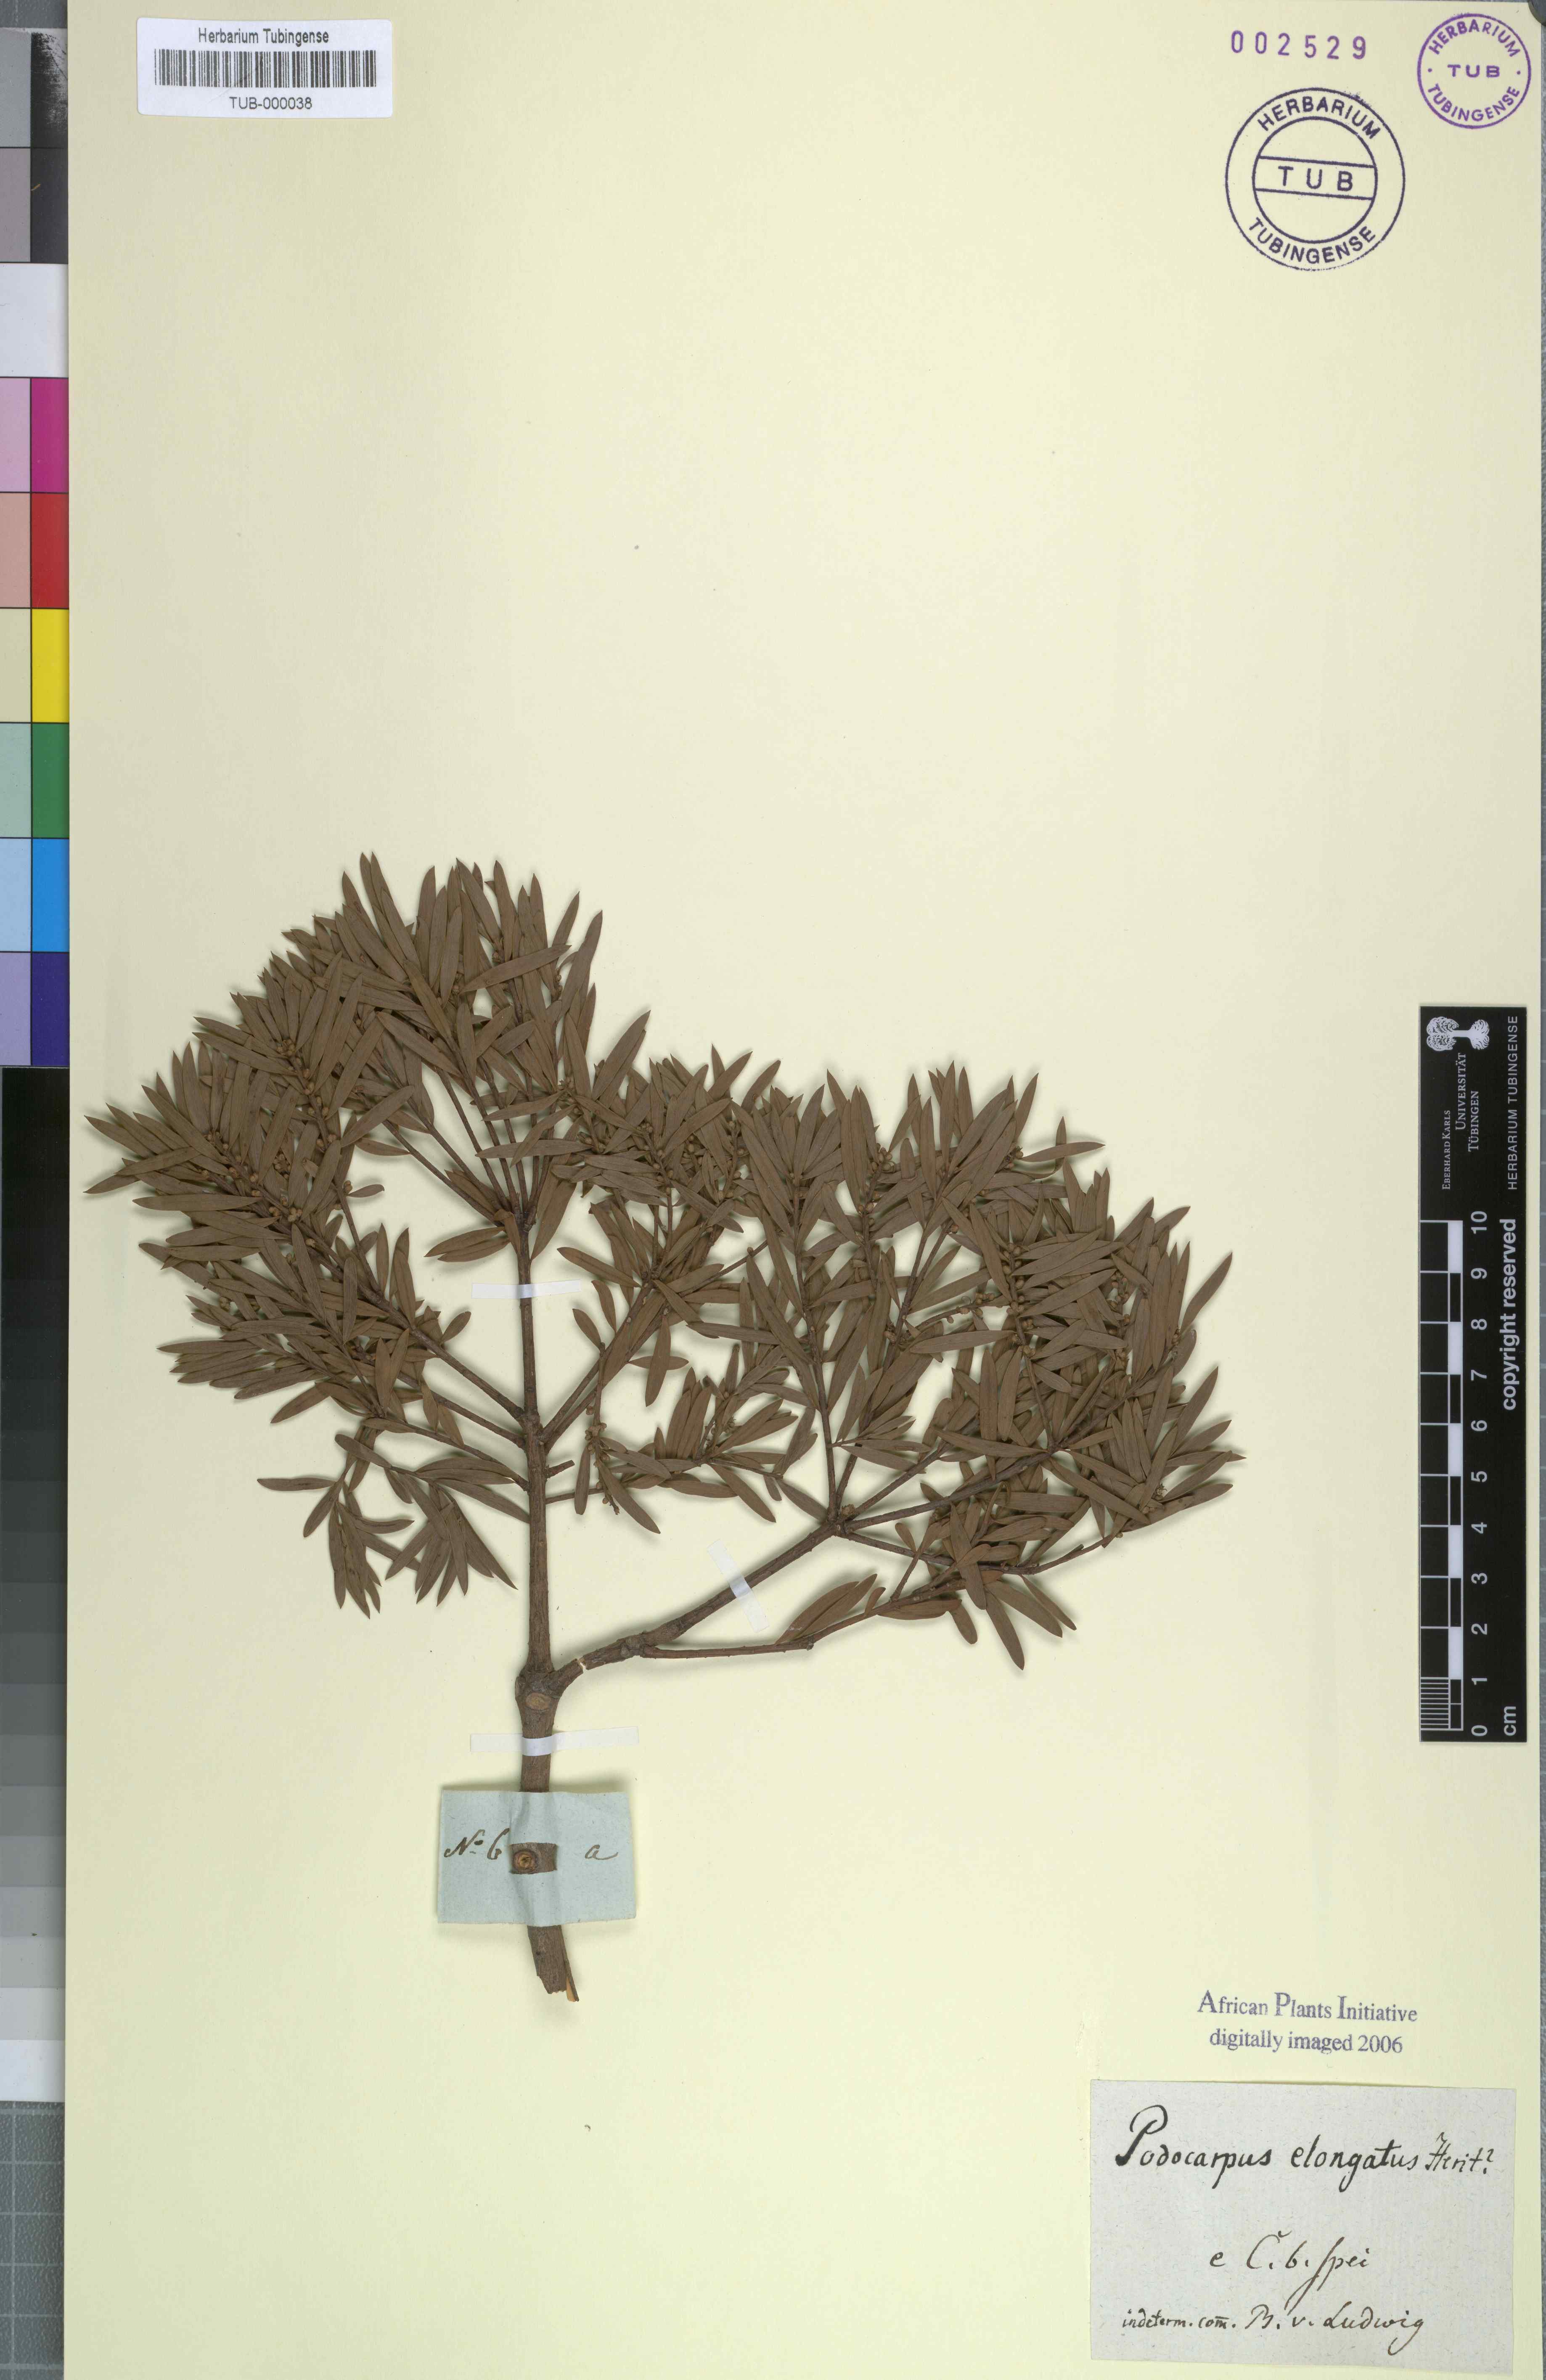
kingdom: Plantae
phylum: Tracheophyta
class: Pinopsida
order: Pinales
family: Podocarpaceae
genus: Podocarpus
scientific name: Podocarpus elongatus
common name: Breede river yellowwood
